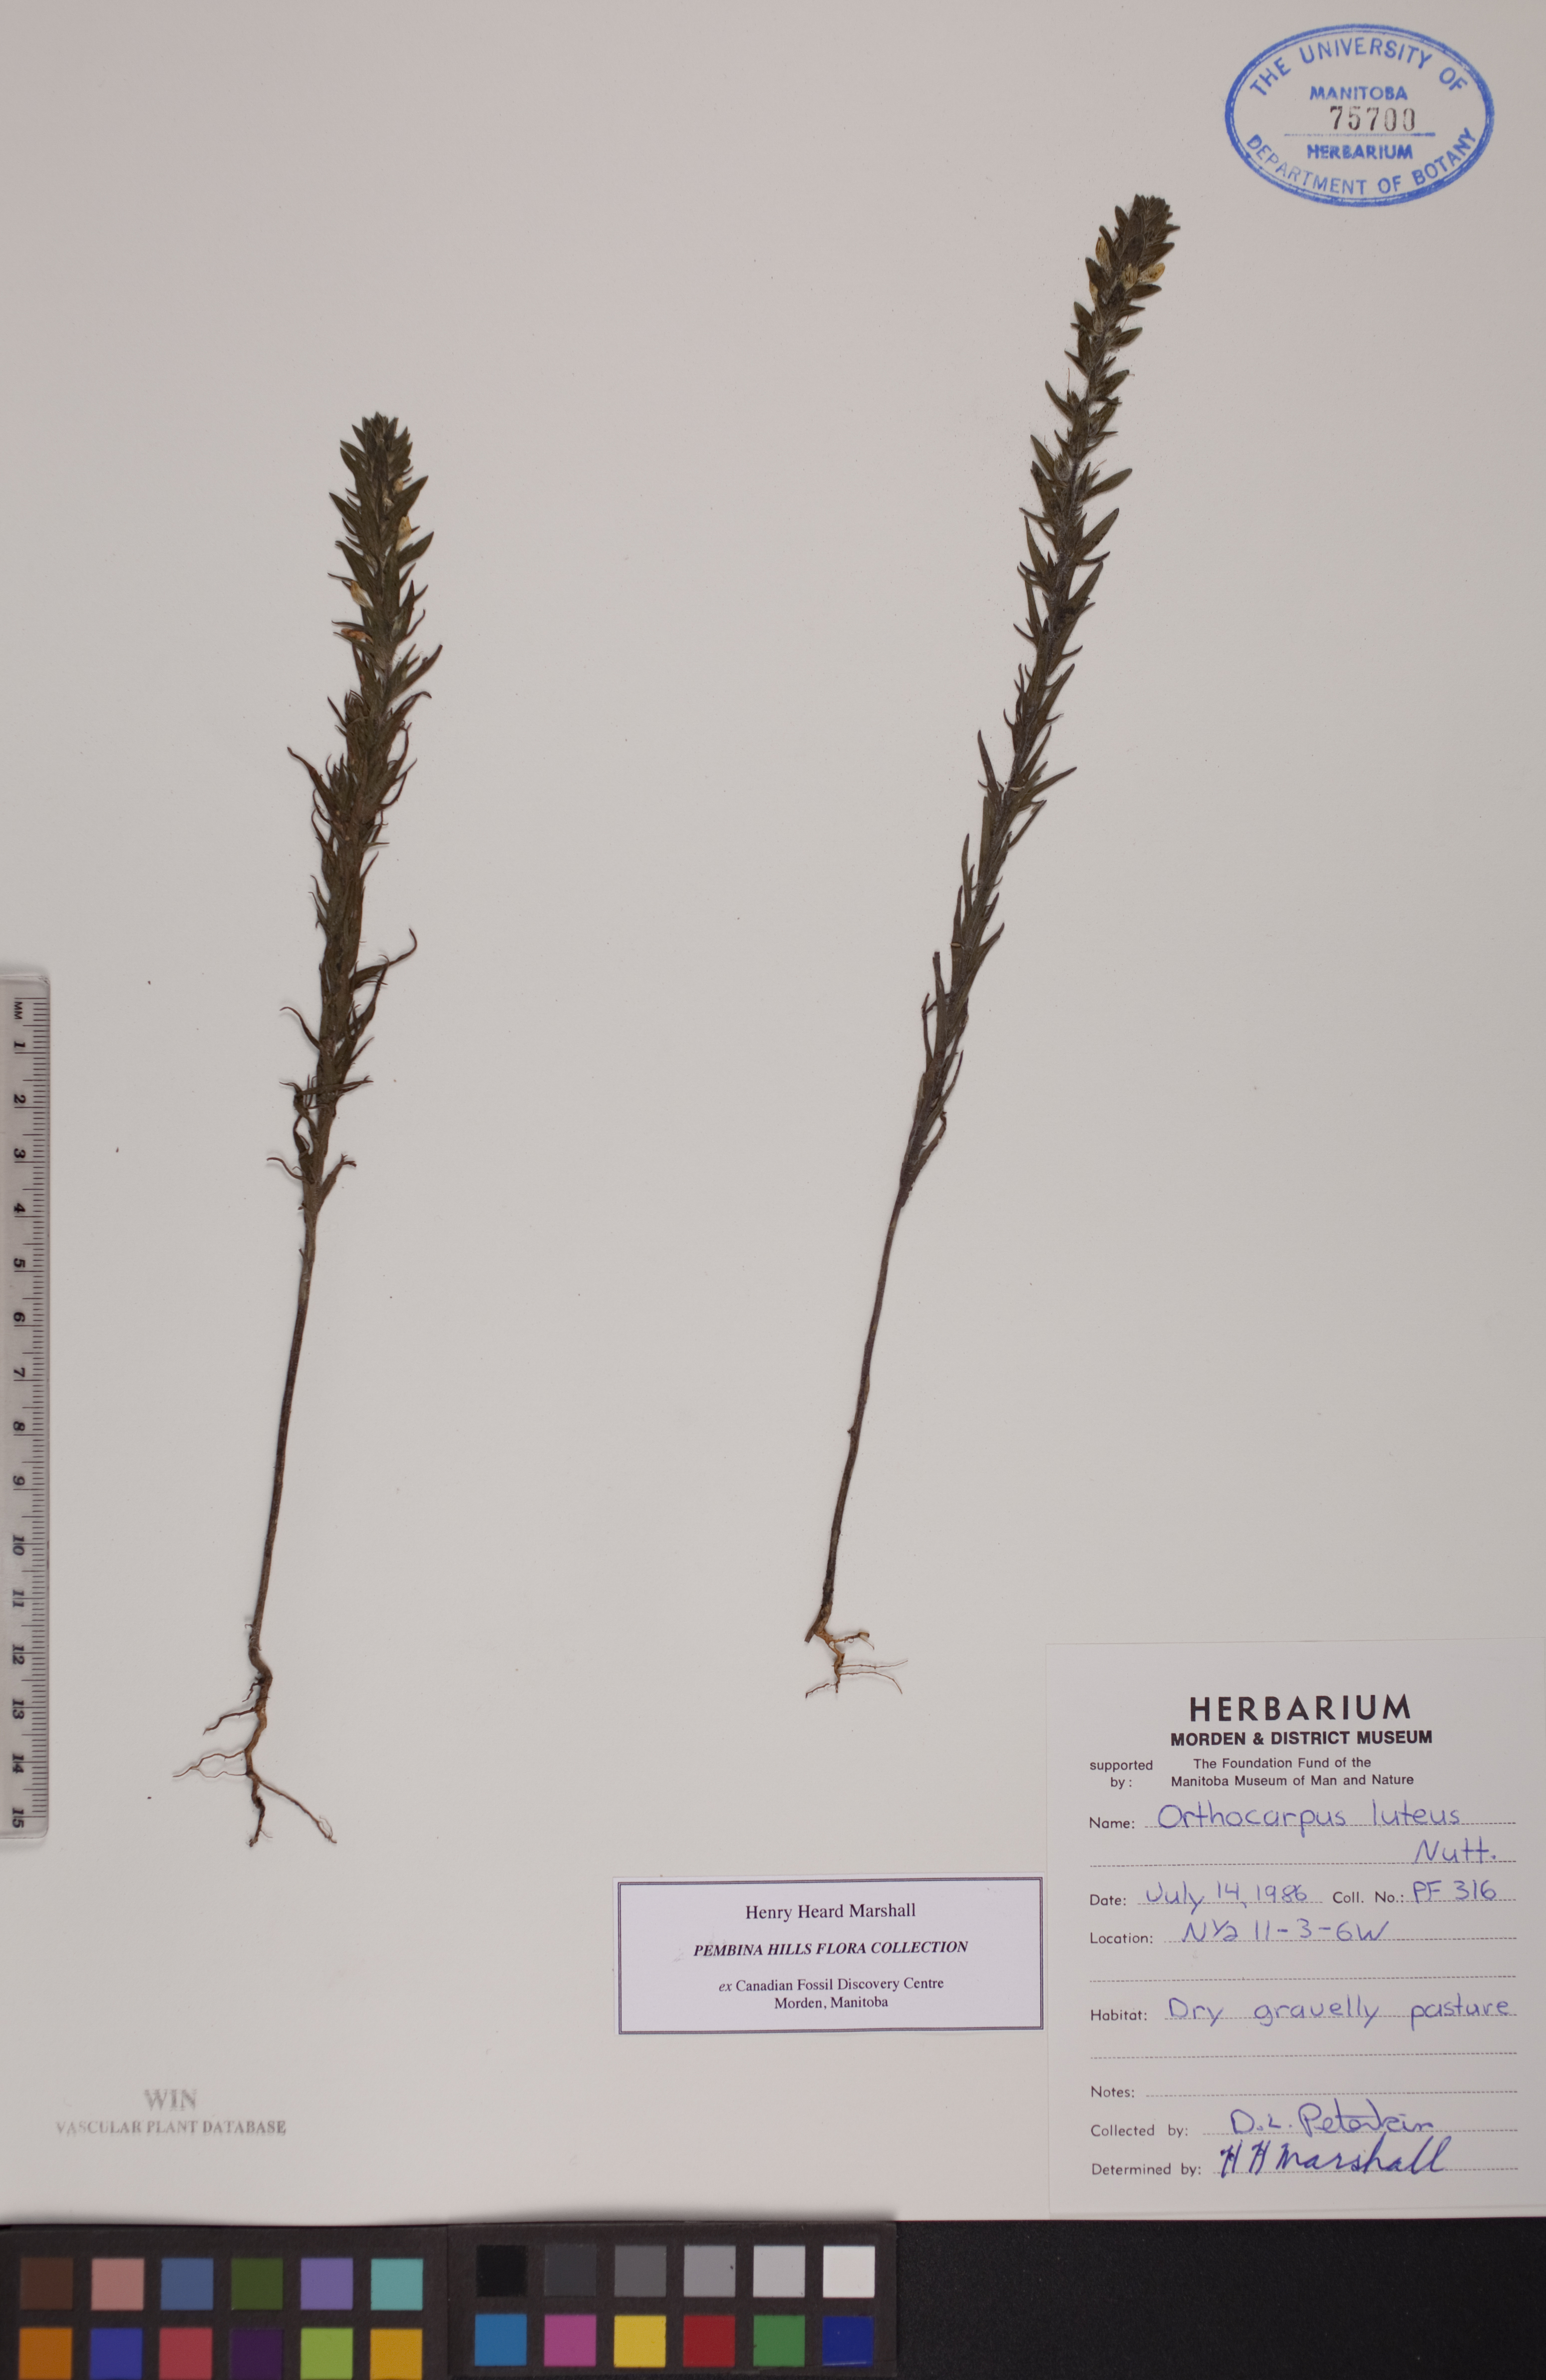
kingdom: Plantae
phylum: Tracheophyta
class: Magnoliopsida
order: Lamiales
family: Orobanchaceae
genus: Orthocarpus
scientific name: Orthocarpus luteus
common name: Golden-tongue owl's-clover
